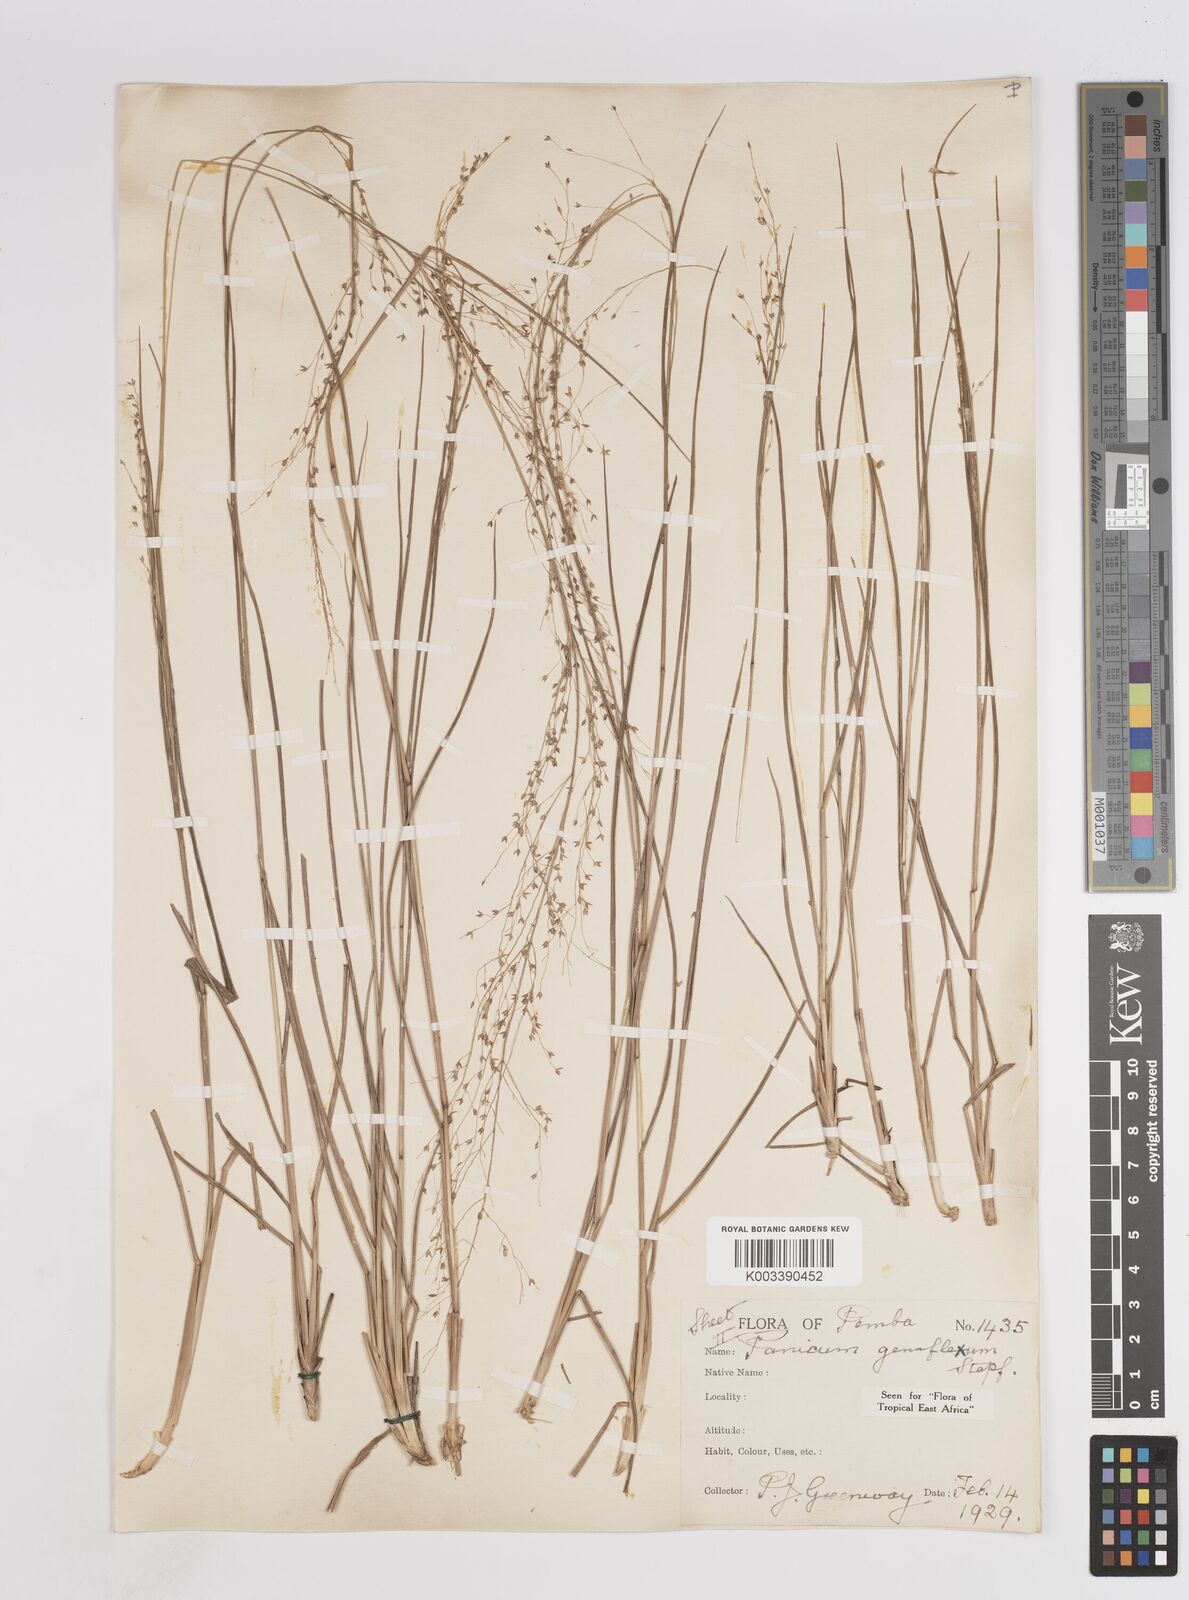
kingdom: Plantae
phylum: Tracheophyta
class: Liliopsida
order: Poales
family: Poaceae
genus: Panicum
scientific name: Panicum genuflexum
